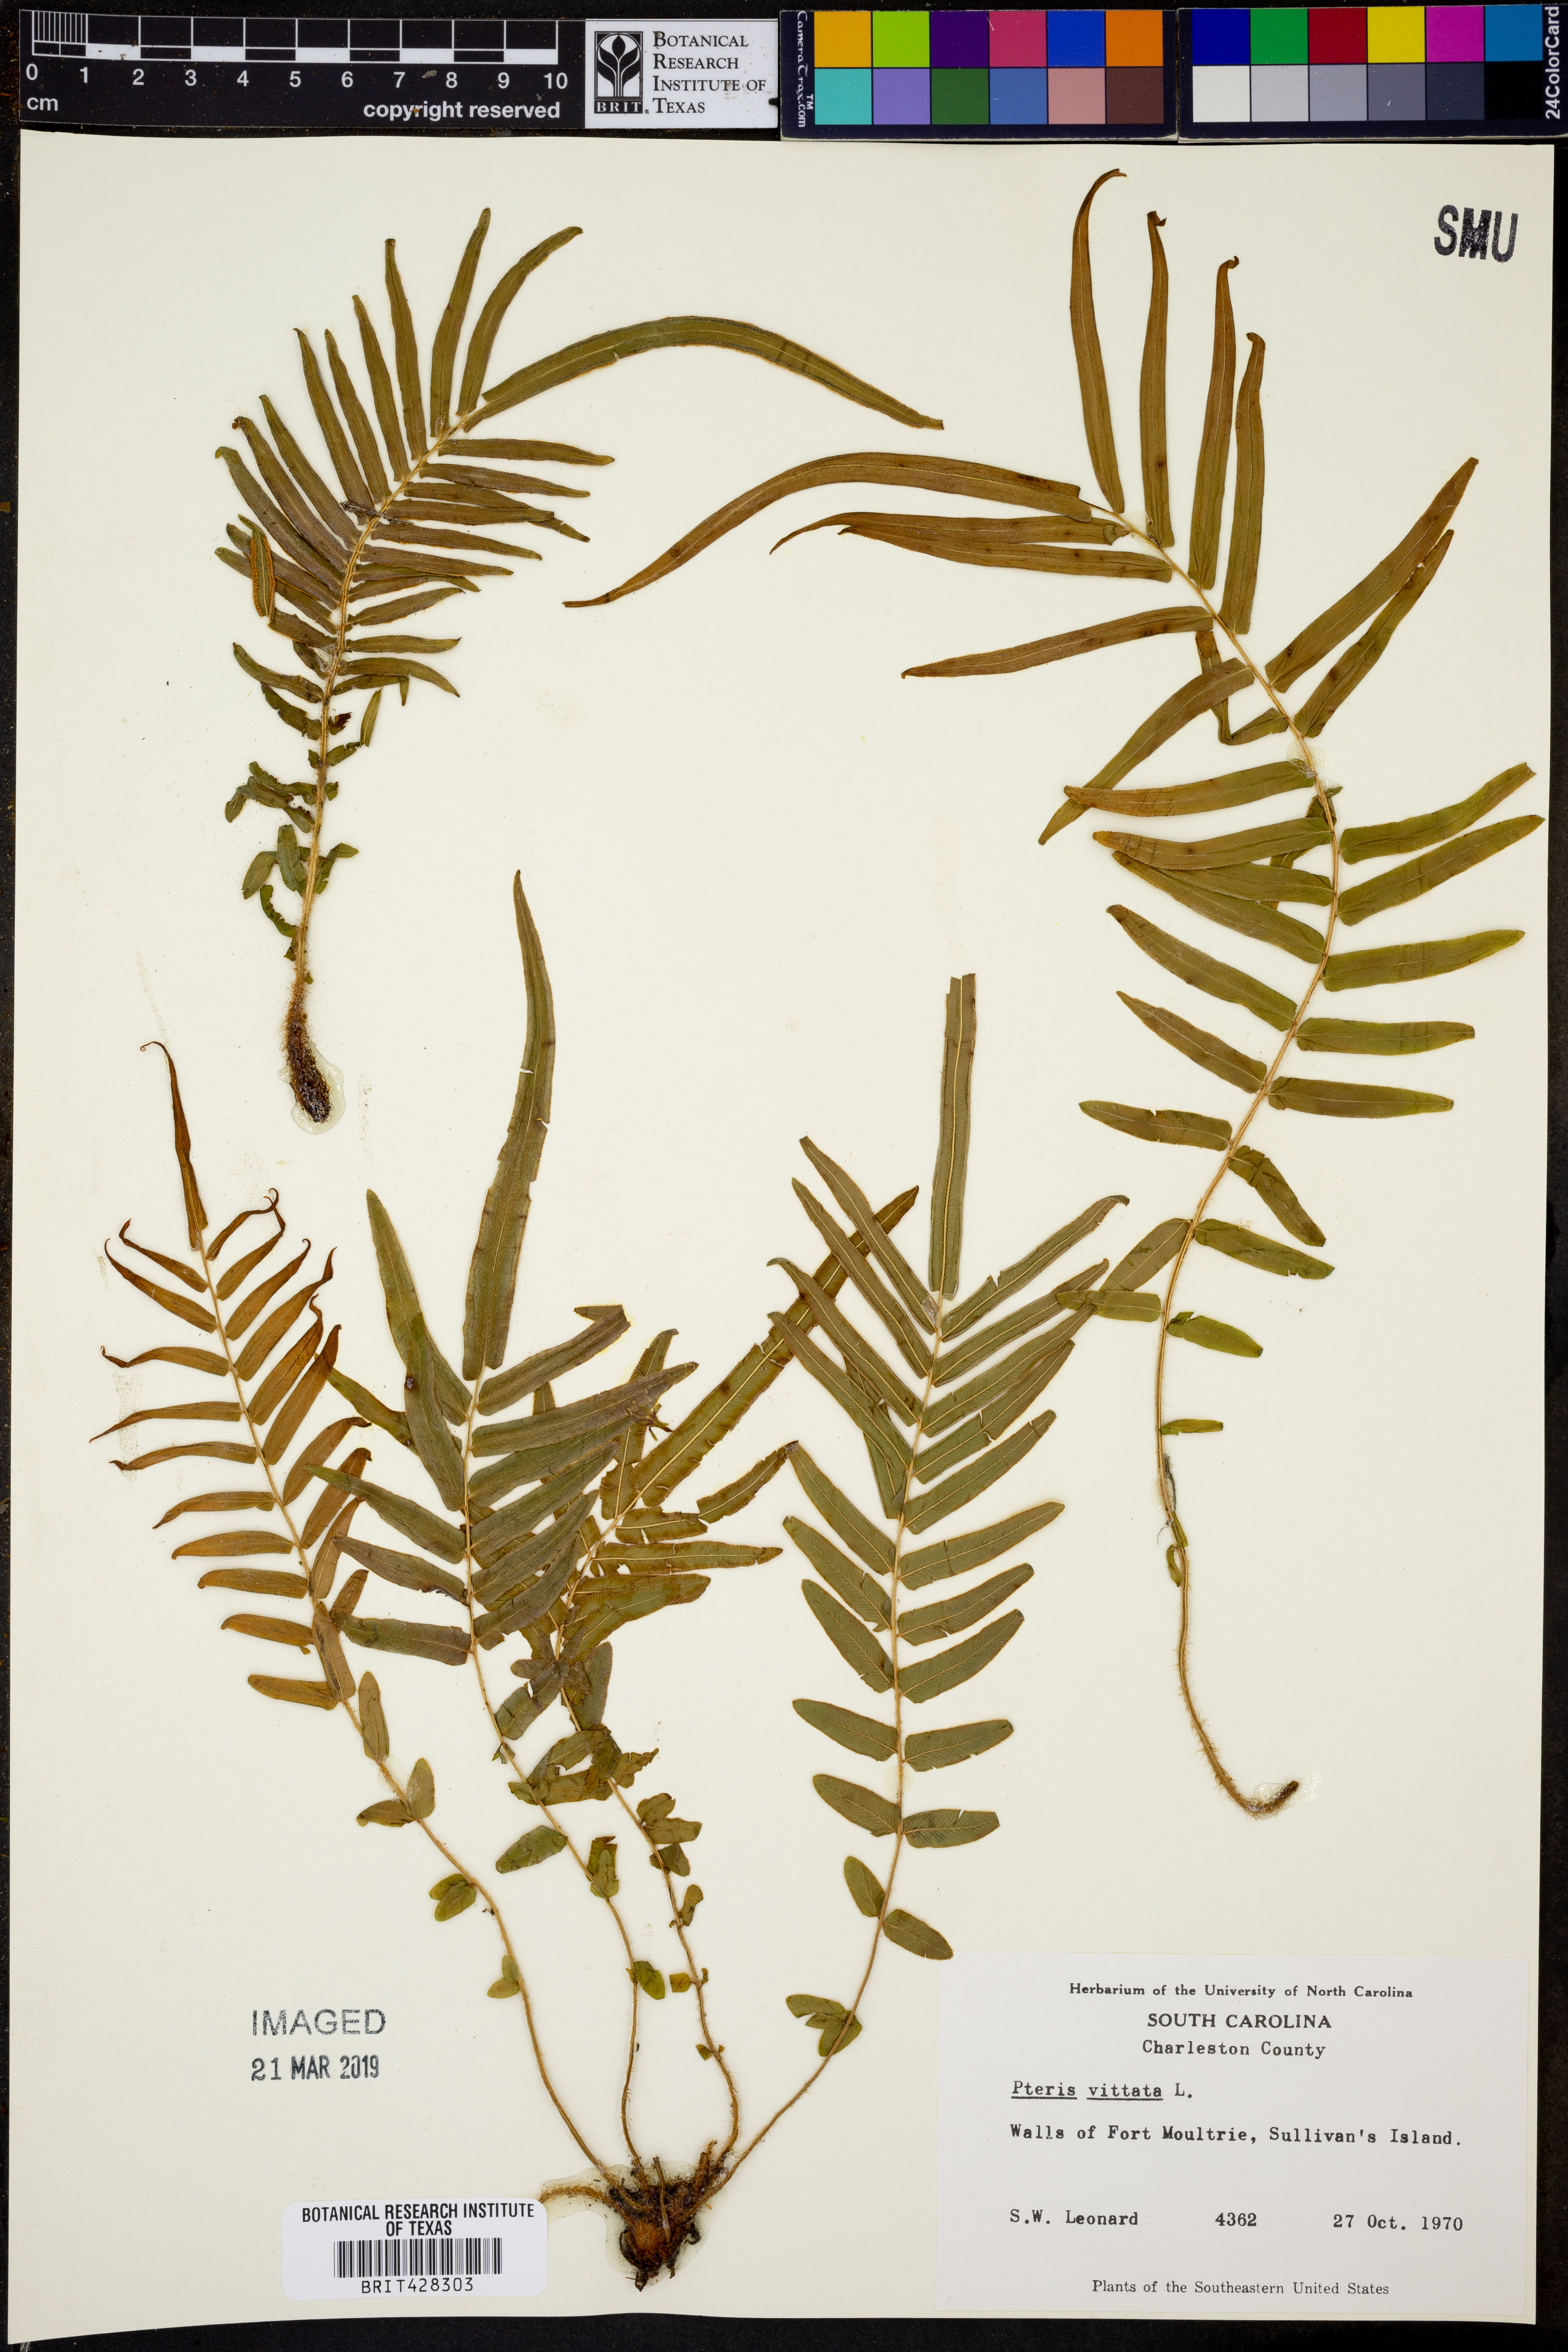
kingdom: Plantae
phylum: Tracheophyta
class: Polypodiopsida
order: Polypodiales
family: Pteridaceae
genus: Pteris
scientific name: Pteris vittata
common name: Ladder brake
